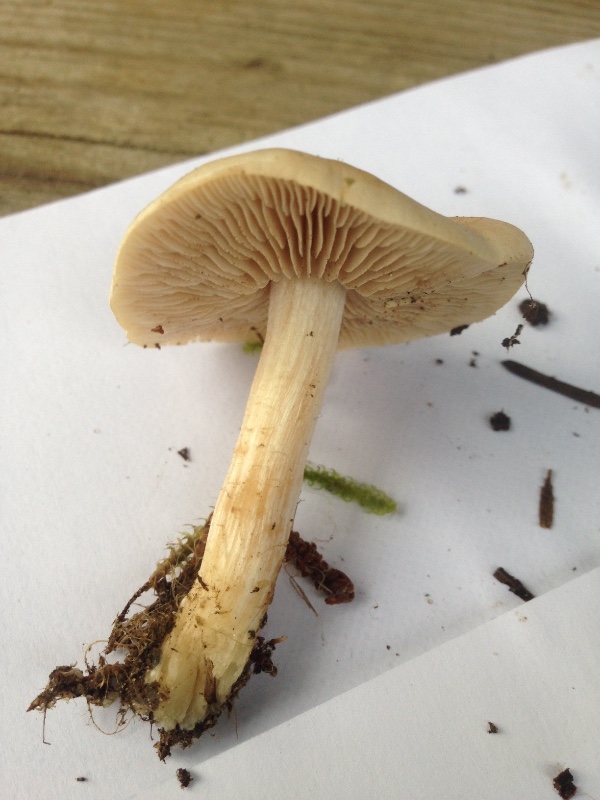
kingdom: Fungi
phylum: Basidiomycota
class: Agaricomycetes
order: Agaricales
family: Hymenogastraceae
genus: Hebeloma
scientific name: Hebeloma leucosarx
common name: højstokket tåreblad
